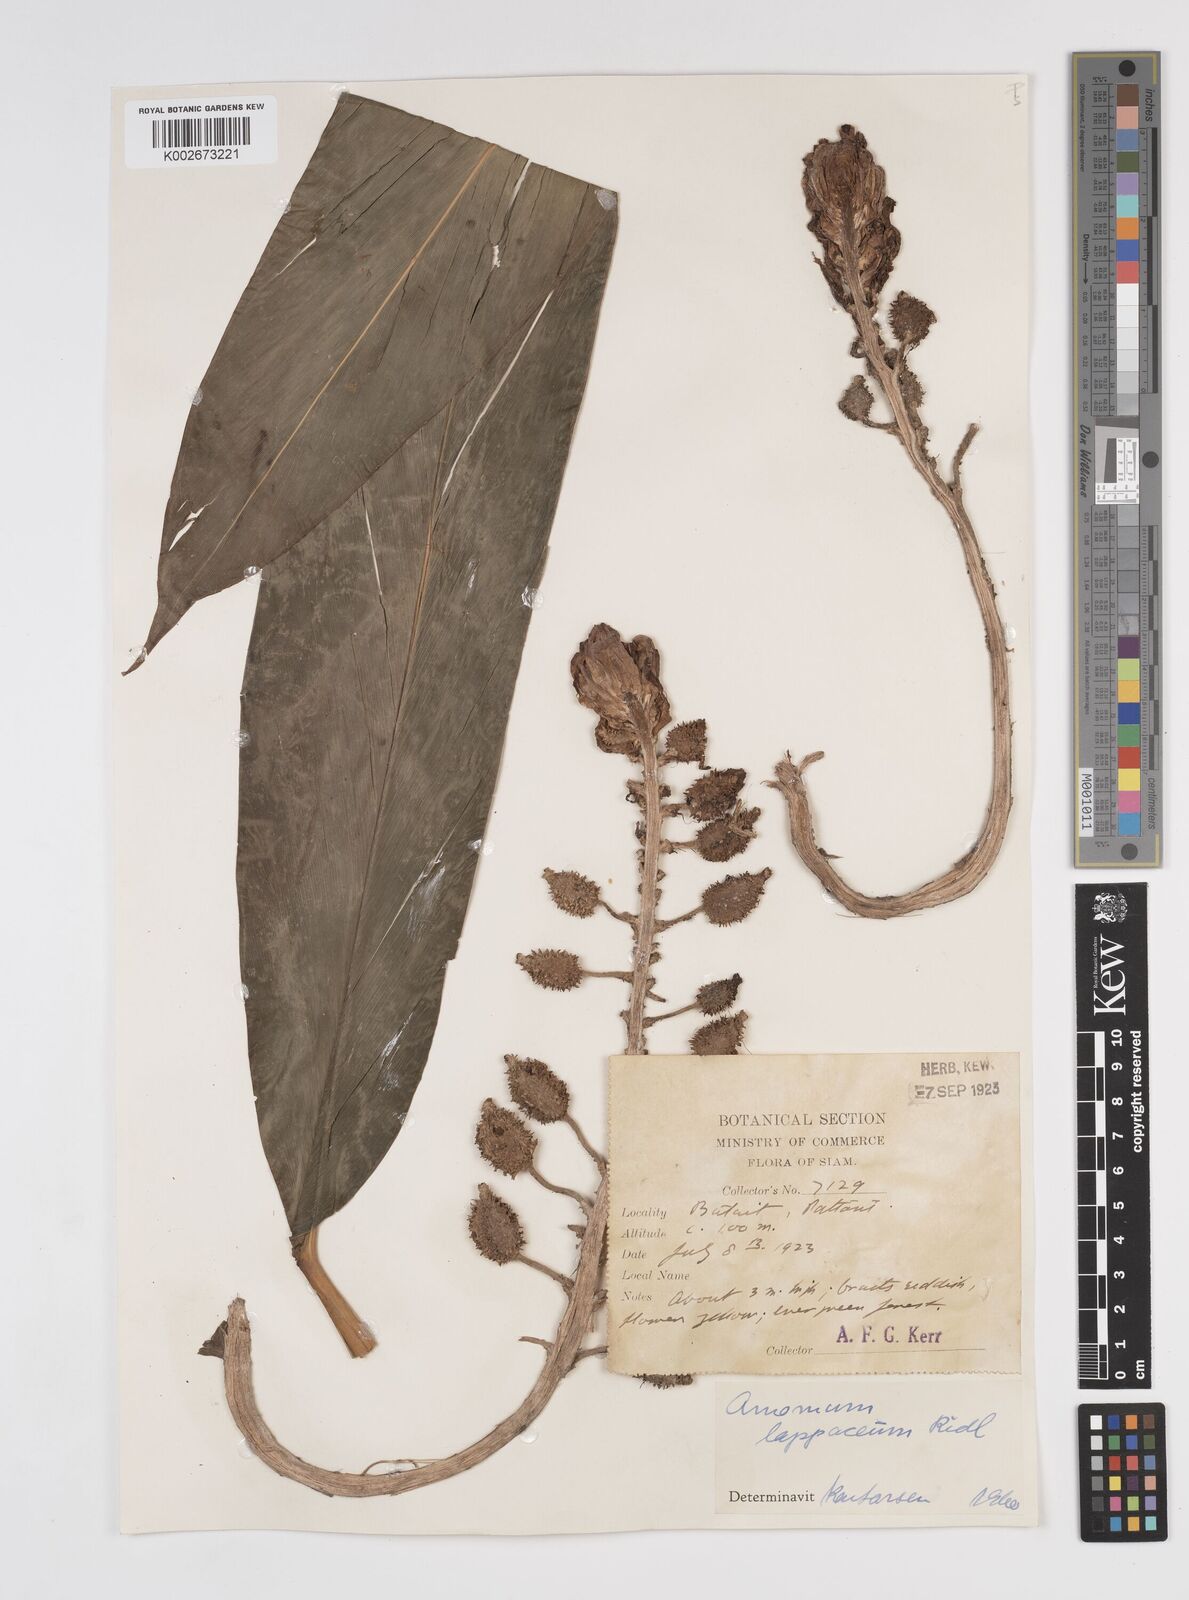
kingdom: Plantae
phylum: Tracheophyta
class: Liliopsida
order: Zingiberales
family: Zingiberaceae
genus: Meistera
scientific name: Meistera lappacea
